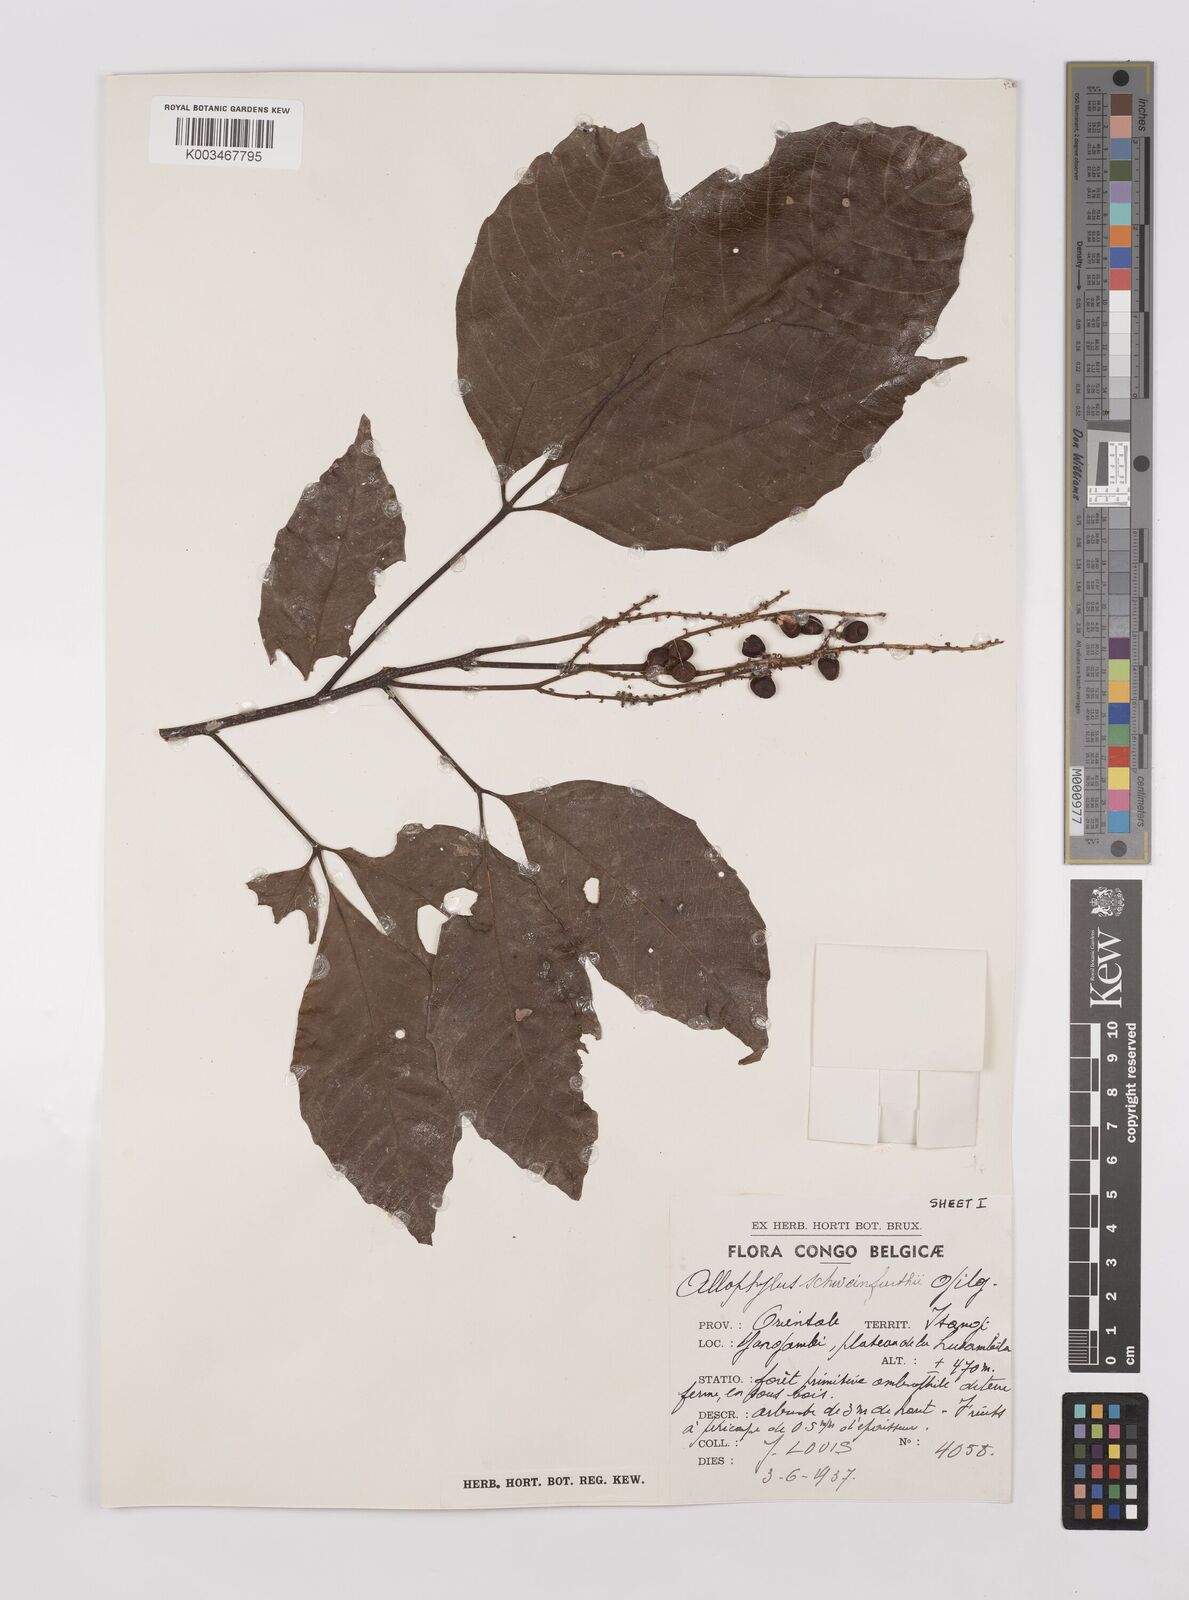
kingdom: Plantae
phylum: Tracheophyta
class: Magnoliopsida
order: Sapindales
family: Sapindaceae
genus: Allophylus
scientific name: Allophylus africanus
